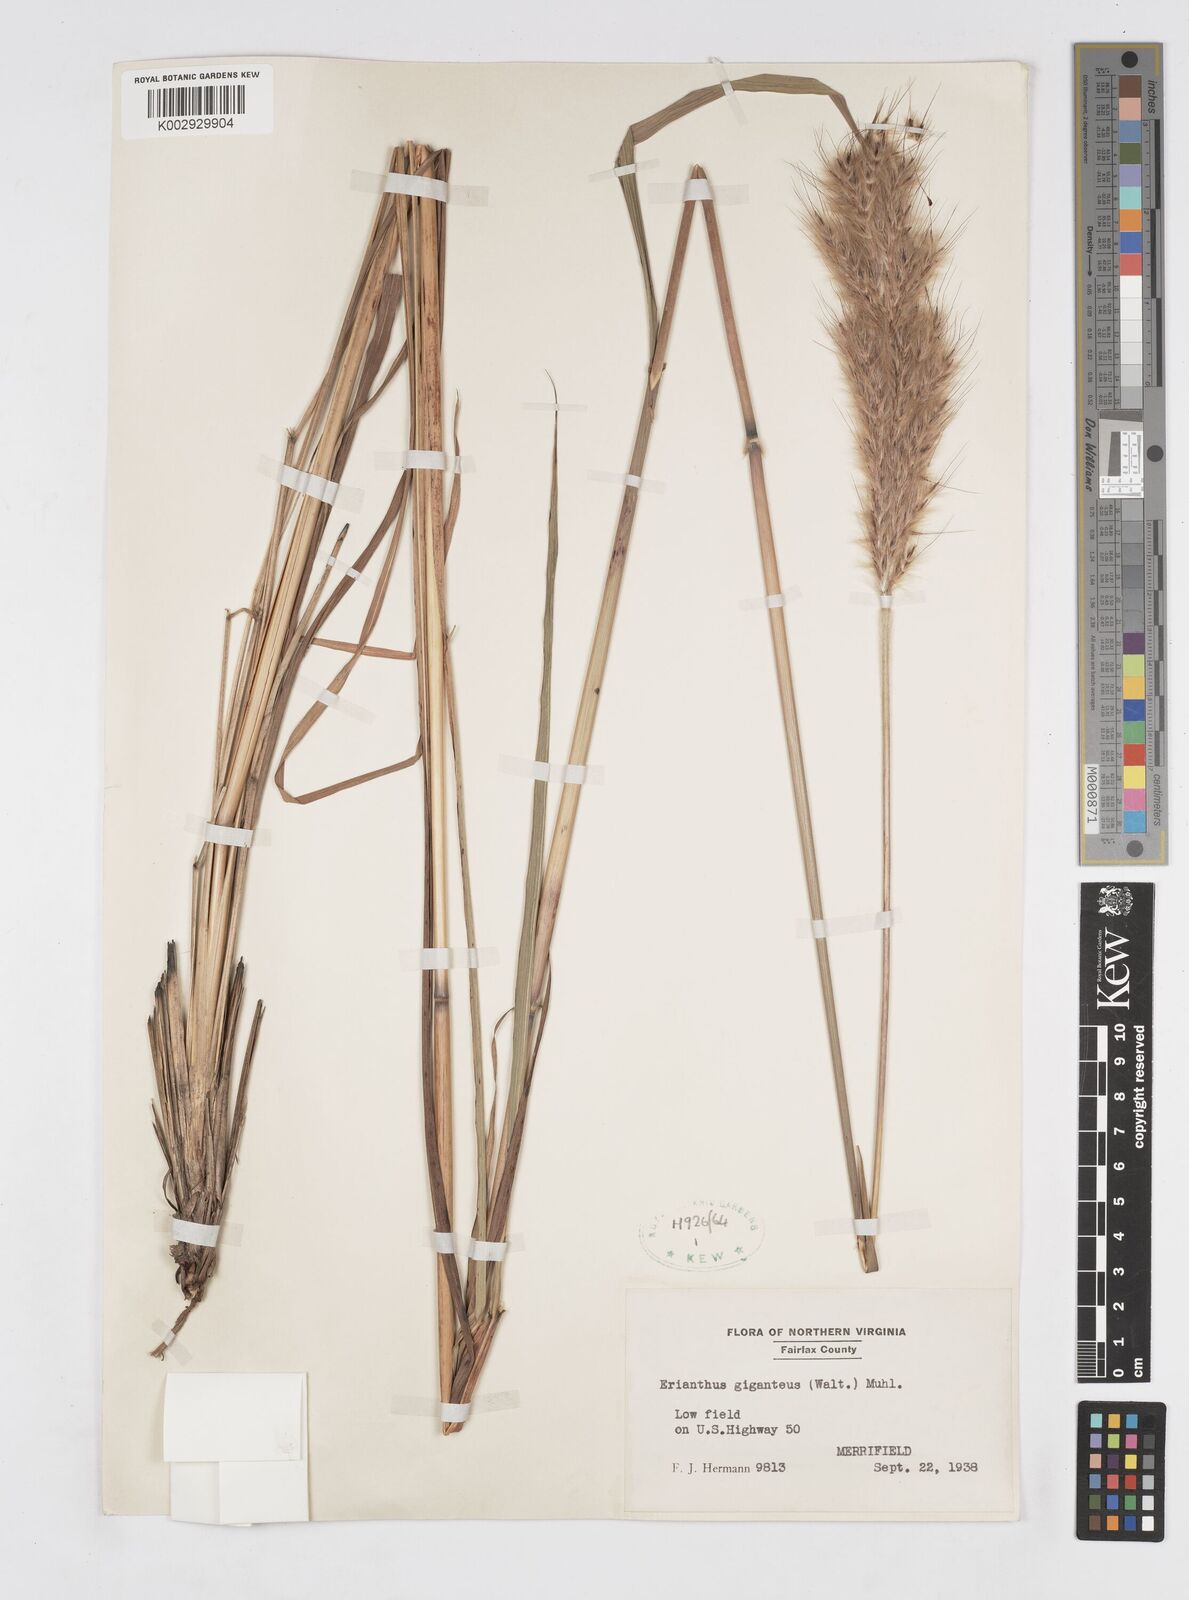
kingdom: Plantae
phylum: Tracheophyta
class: Liliopsida
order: Poales
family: Poaceae
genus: Saccharum
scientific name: Saccharum
